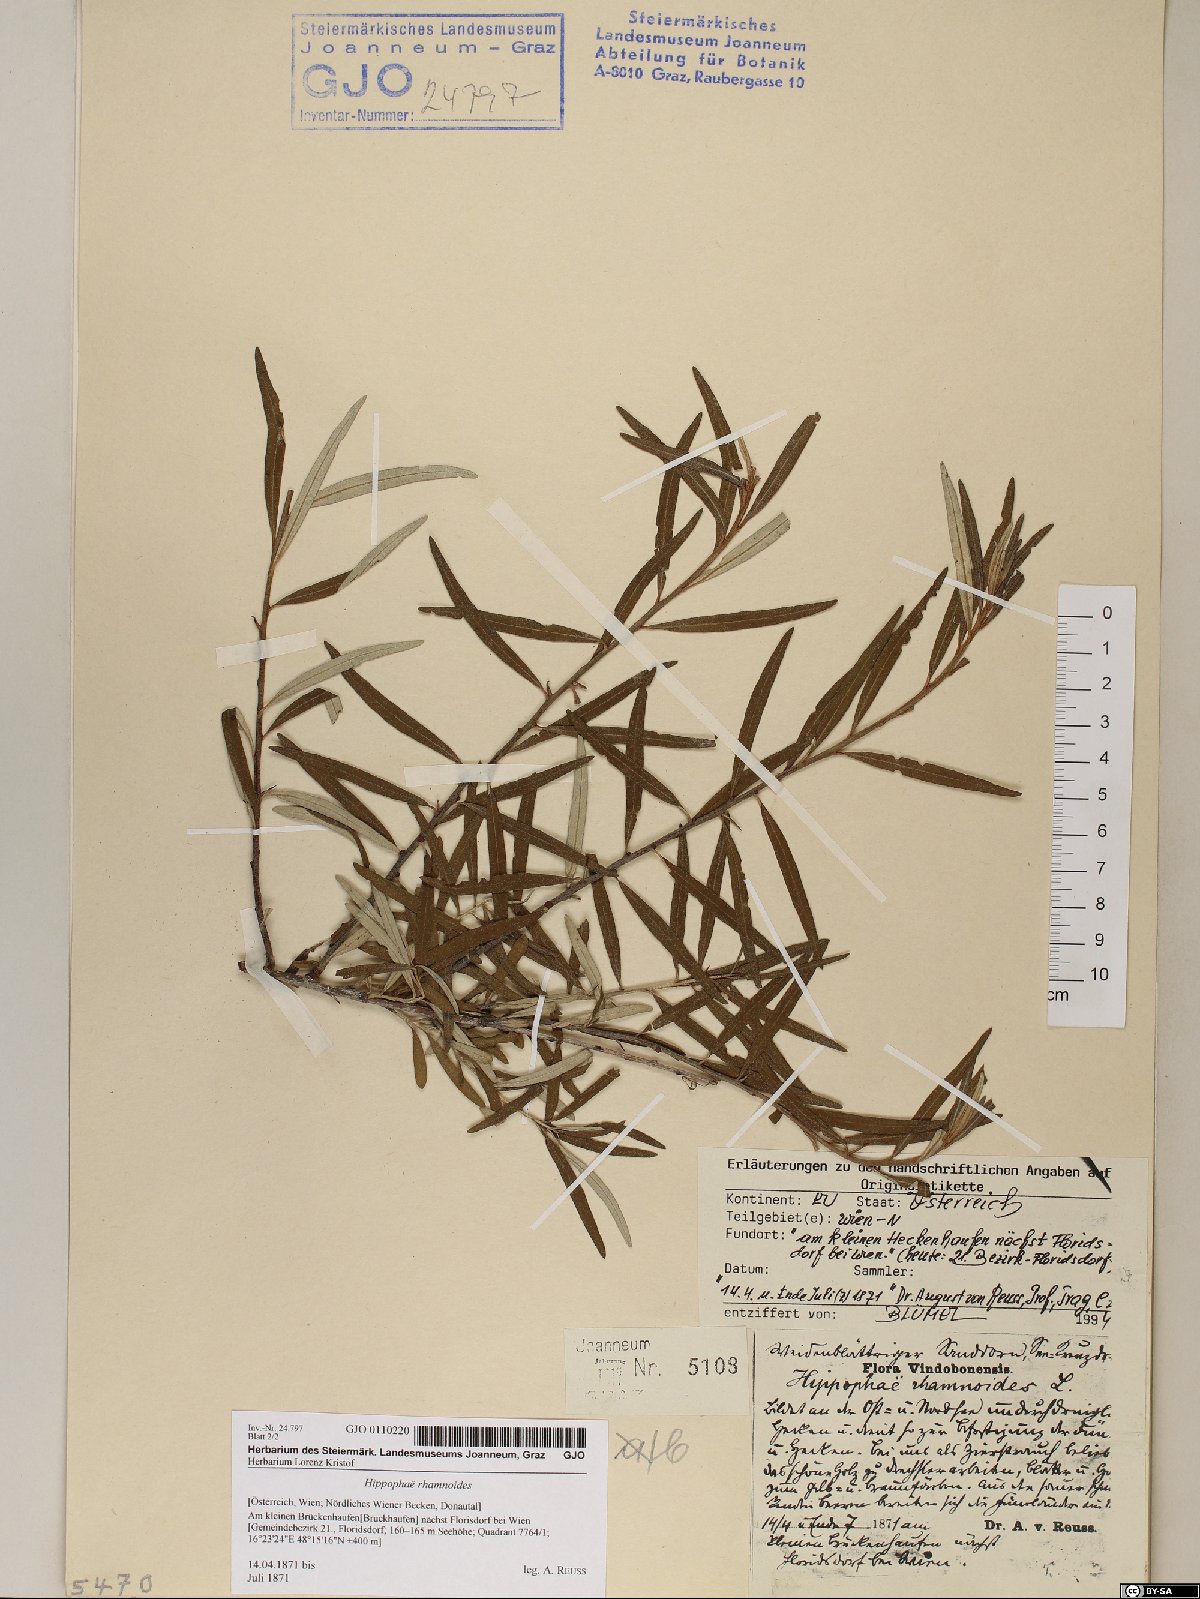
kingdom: Plantae
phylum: Tracheophyta
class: Magnoliopsida
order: Rosales
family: Elaeagnaceae
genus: Hippophae
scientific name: Hippophae rhamnoides
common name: Sea-buckthorn
